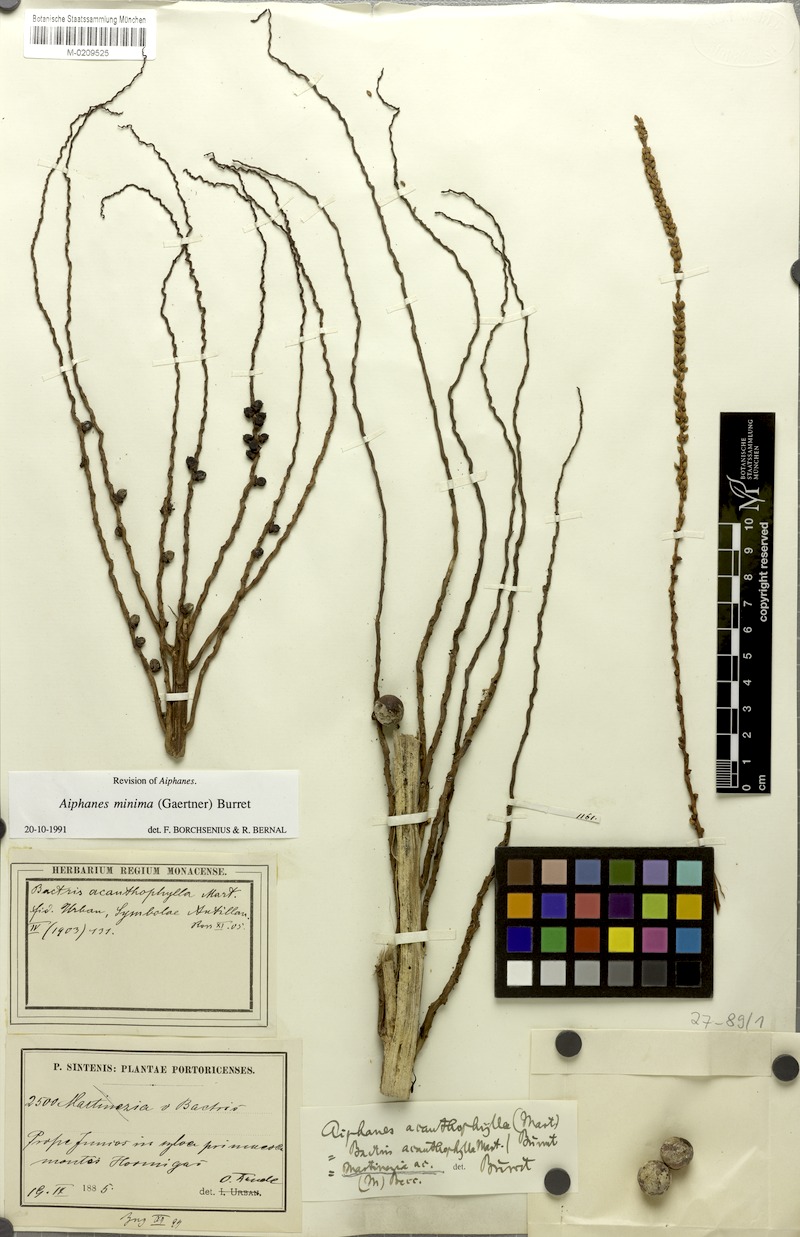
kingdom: Plantae
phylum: Tracheophyta
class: Liliopsida
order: Arecales
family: Arecaceae
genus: Aiphanes
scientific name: Aiphanes minima
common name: Grigri
